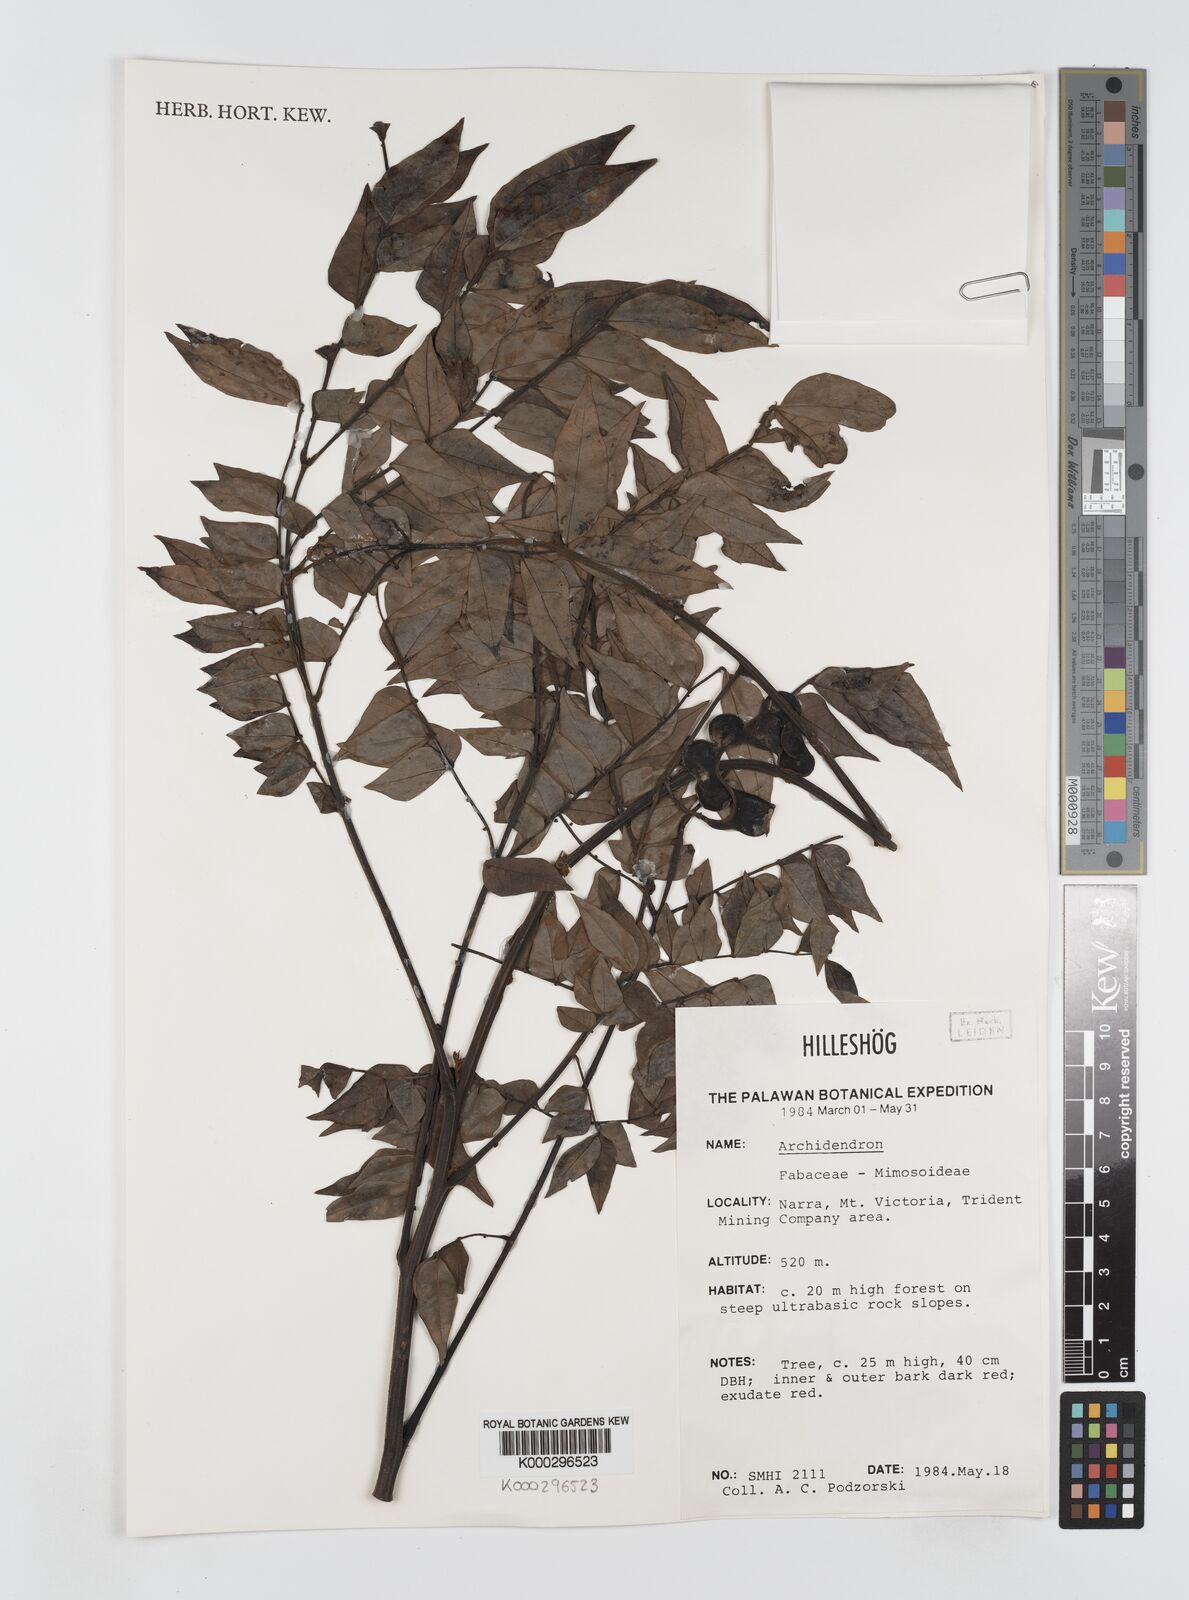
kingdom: Plantae
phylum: Tracheophyta
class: Magnoliopsida
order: Fabales
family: Fabaceae
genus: Archidendron
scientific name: Archidendron clypearia
